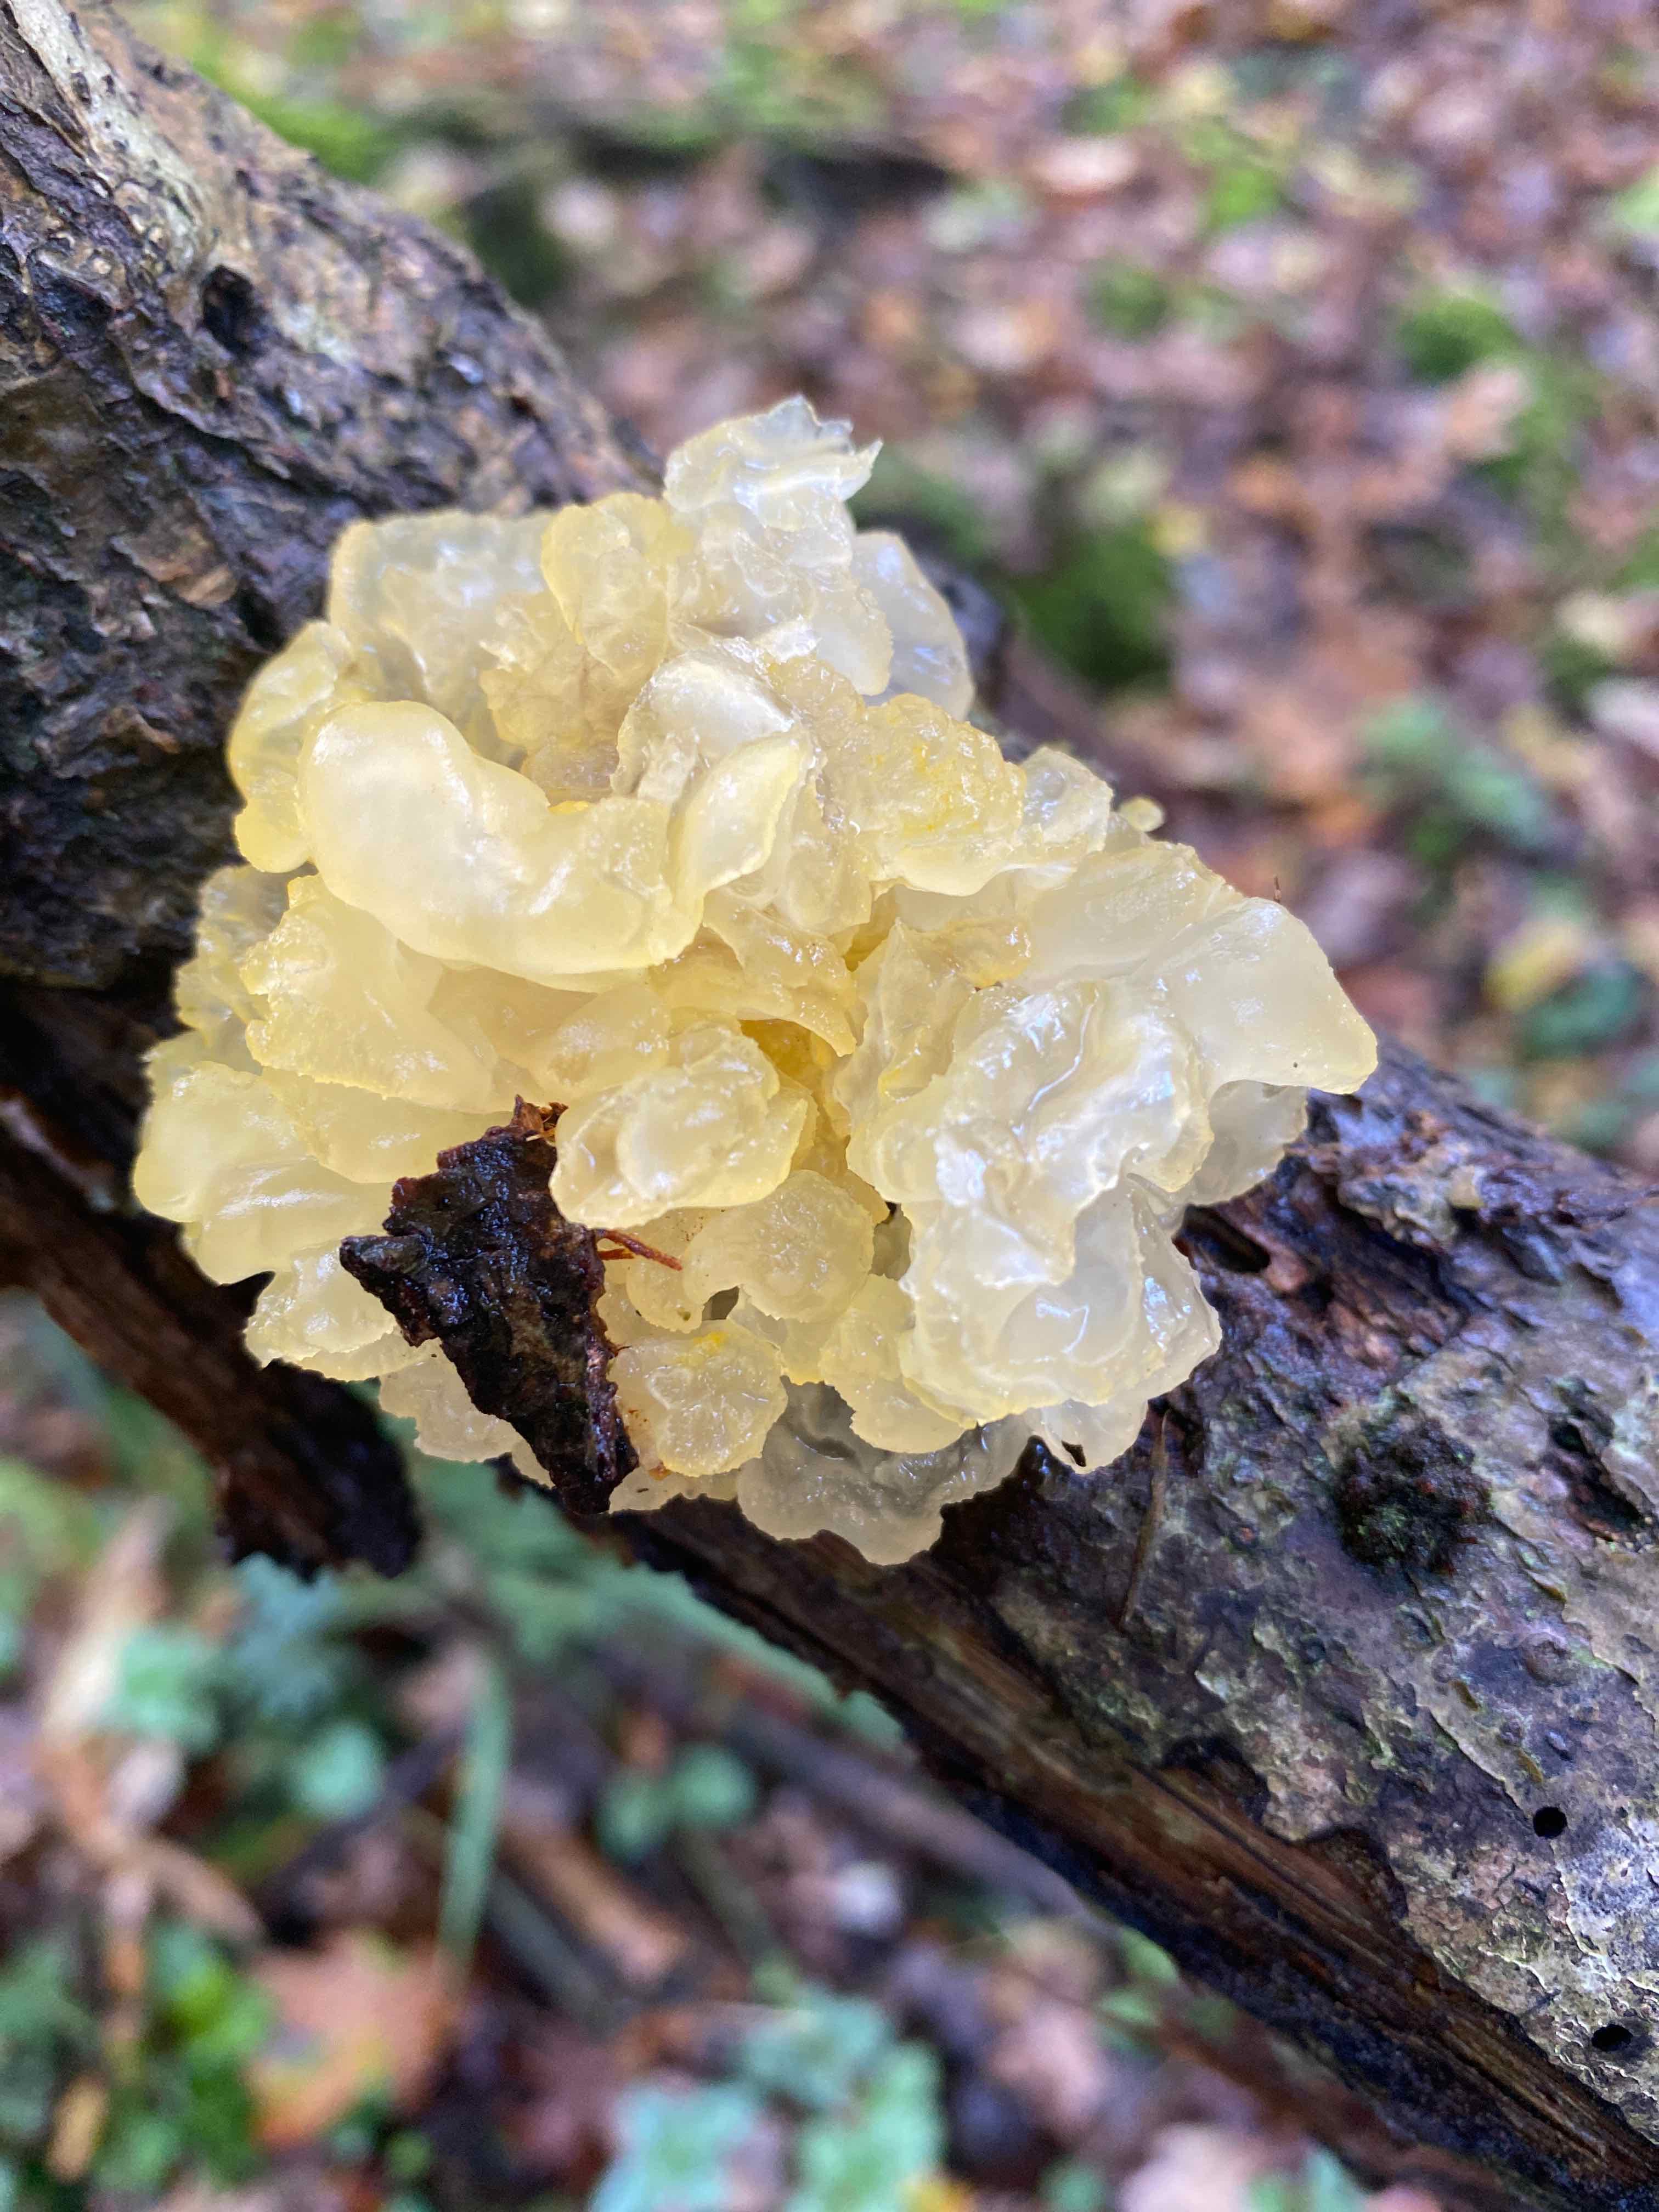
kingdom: Fungi
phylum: Basidiomycota
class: Tremellomycetes
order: Tremellales
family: Tremellaceae
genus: Tremella
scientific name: Tremella mesenterica
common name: gul bævresvamp
